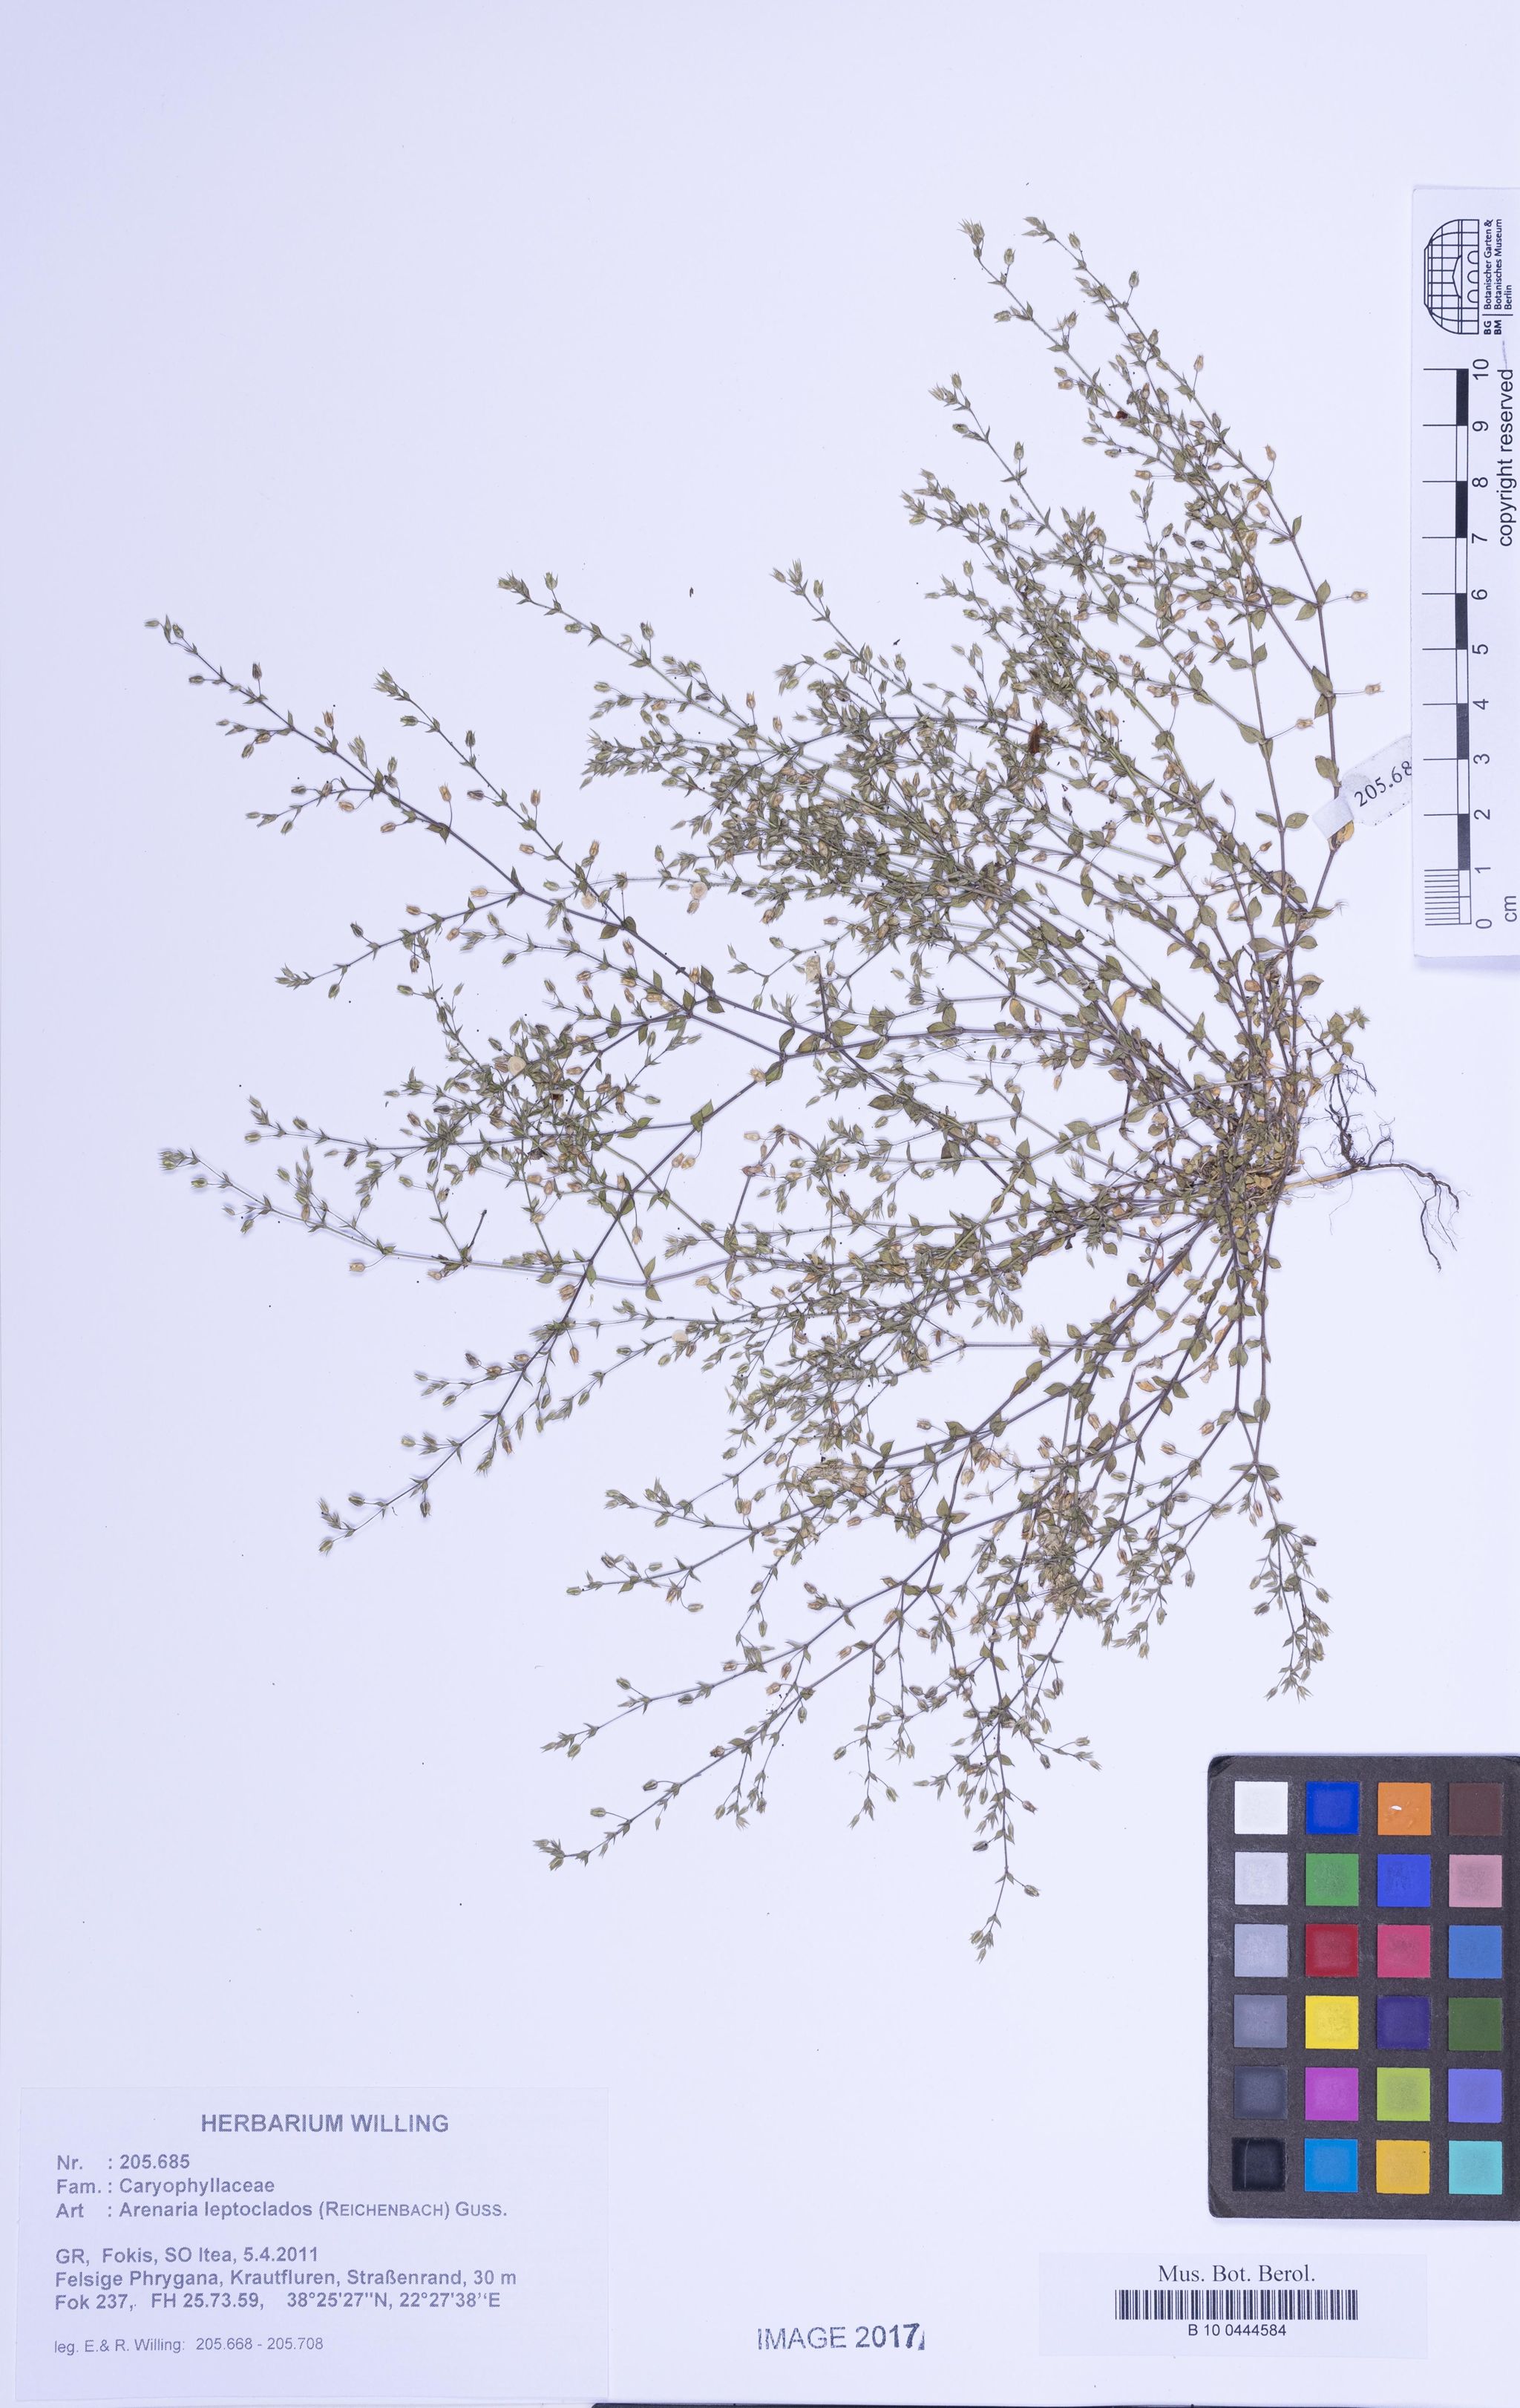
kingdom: Plantae
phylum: Tracheophyta
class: Magnoliopsida
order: Caryophyllales
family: Caryophyllaceae
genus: Arenaria
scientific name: Arenaria leptoclados
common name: Thyme-leaved sandwort
